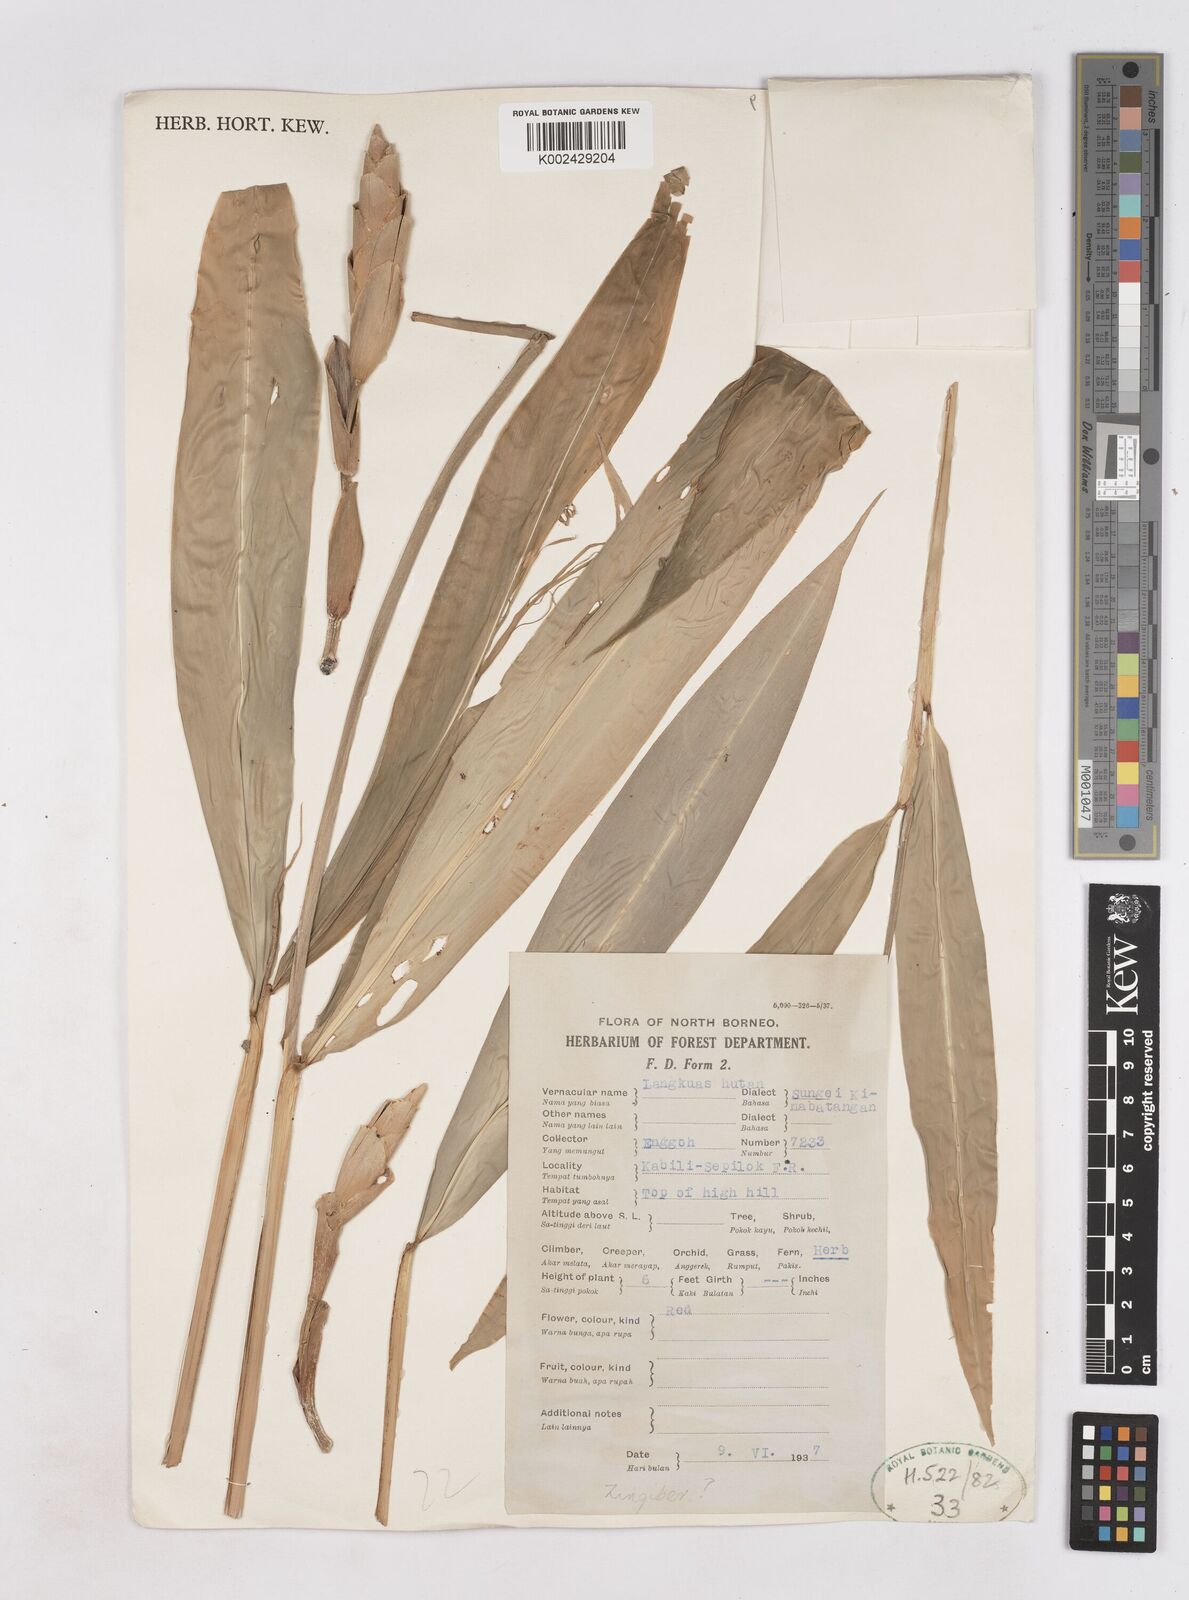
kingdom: Plantae
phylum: Tracheophyta
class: Liliopsida
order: Zingiberales
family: Zingiberaceae
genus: Zingiber
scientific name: Zingiber
